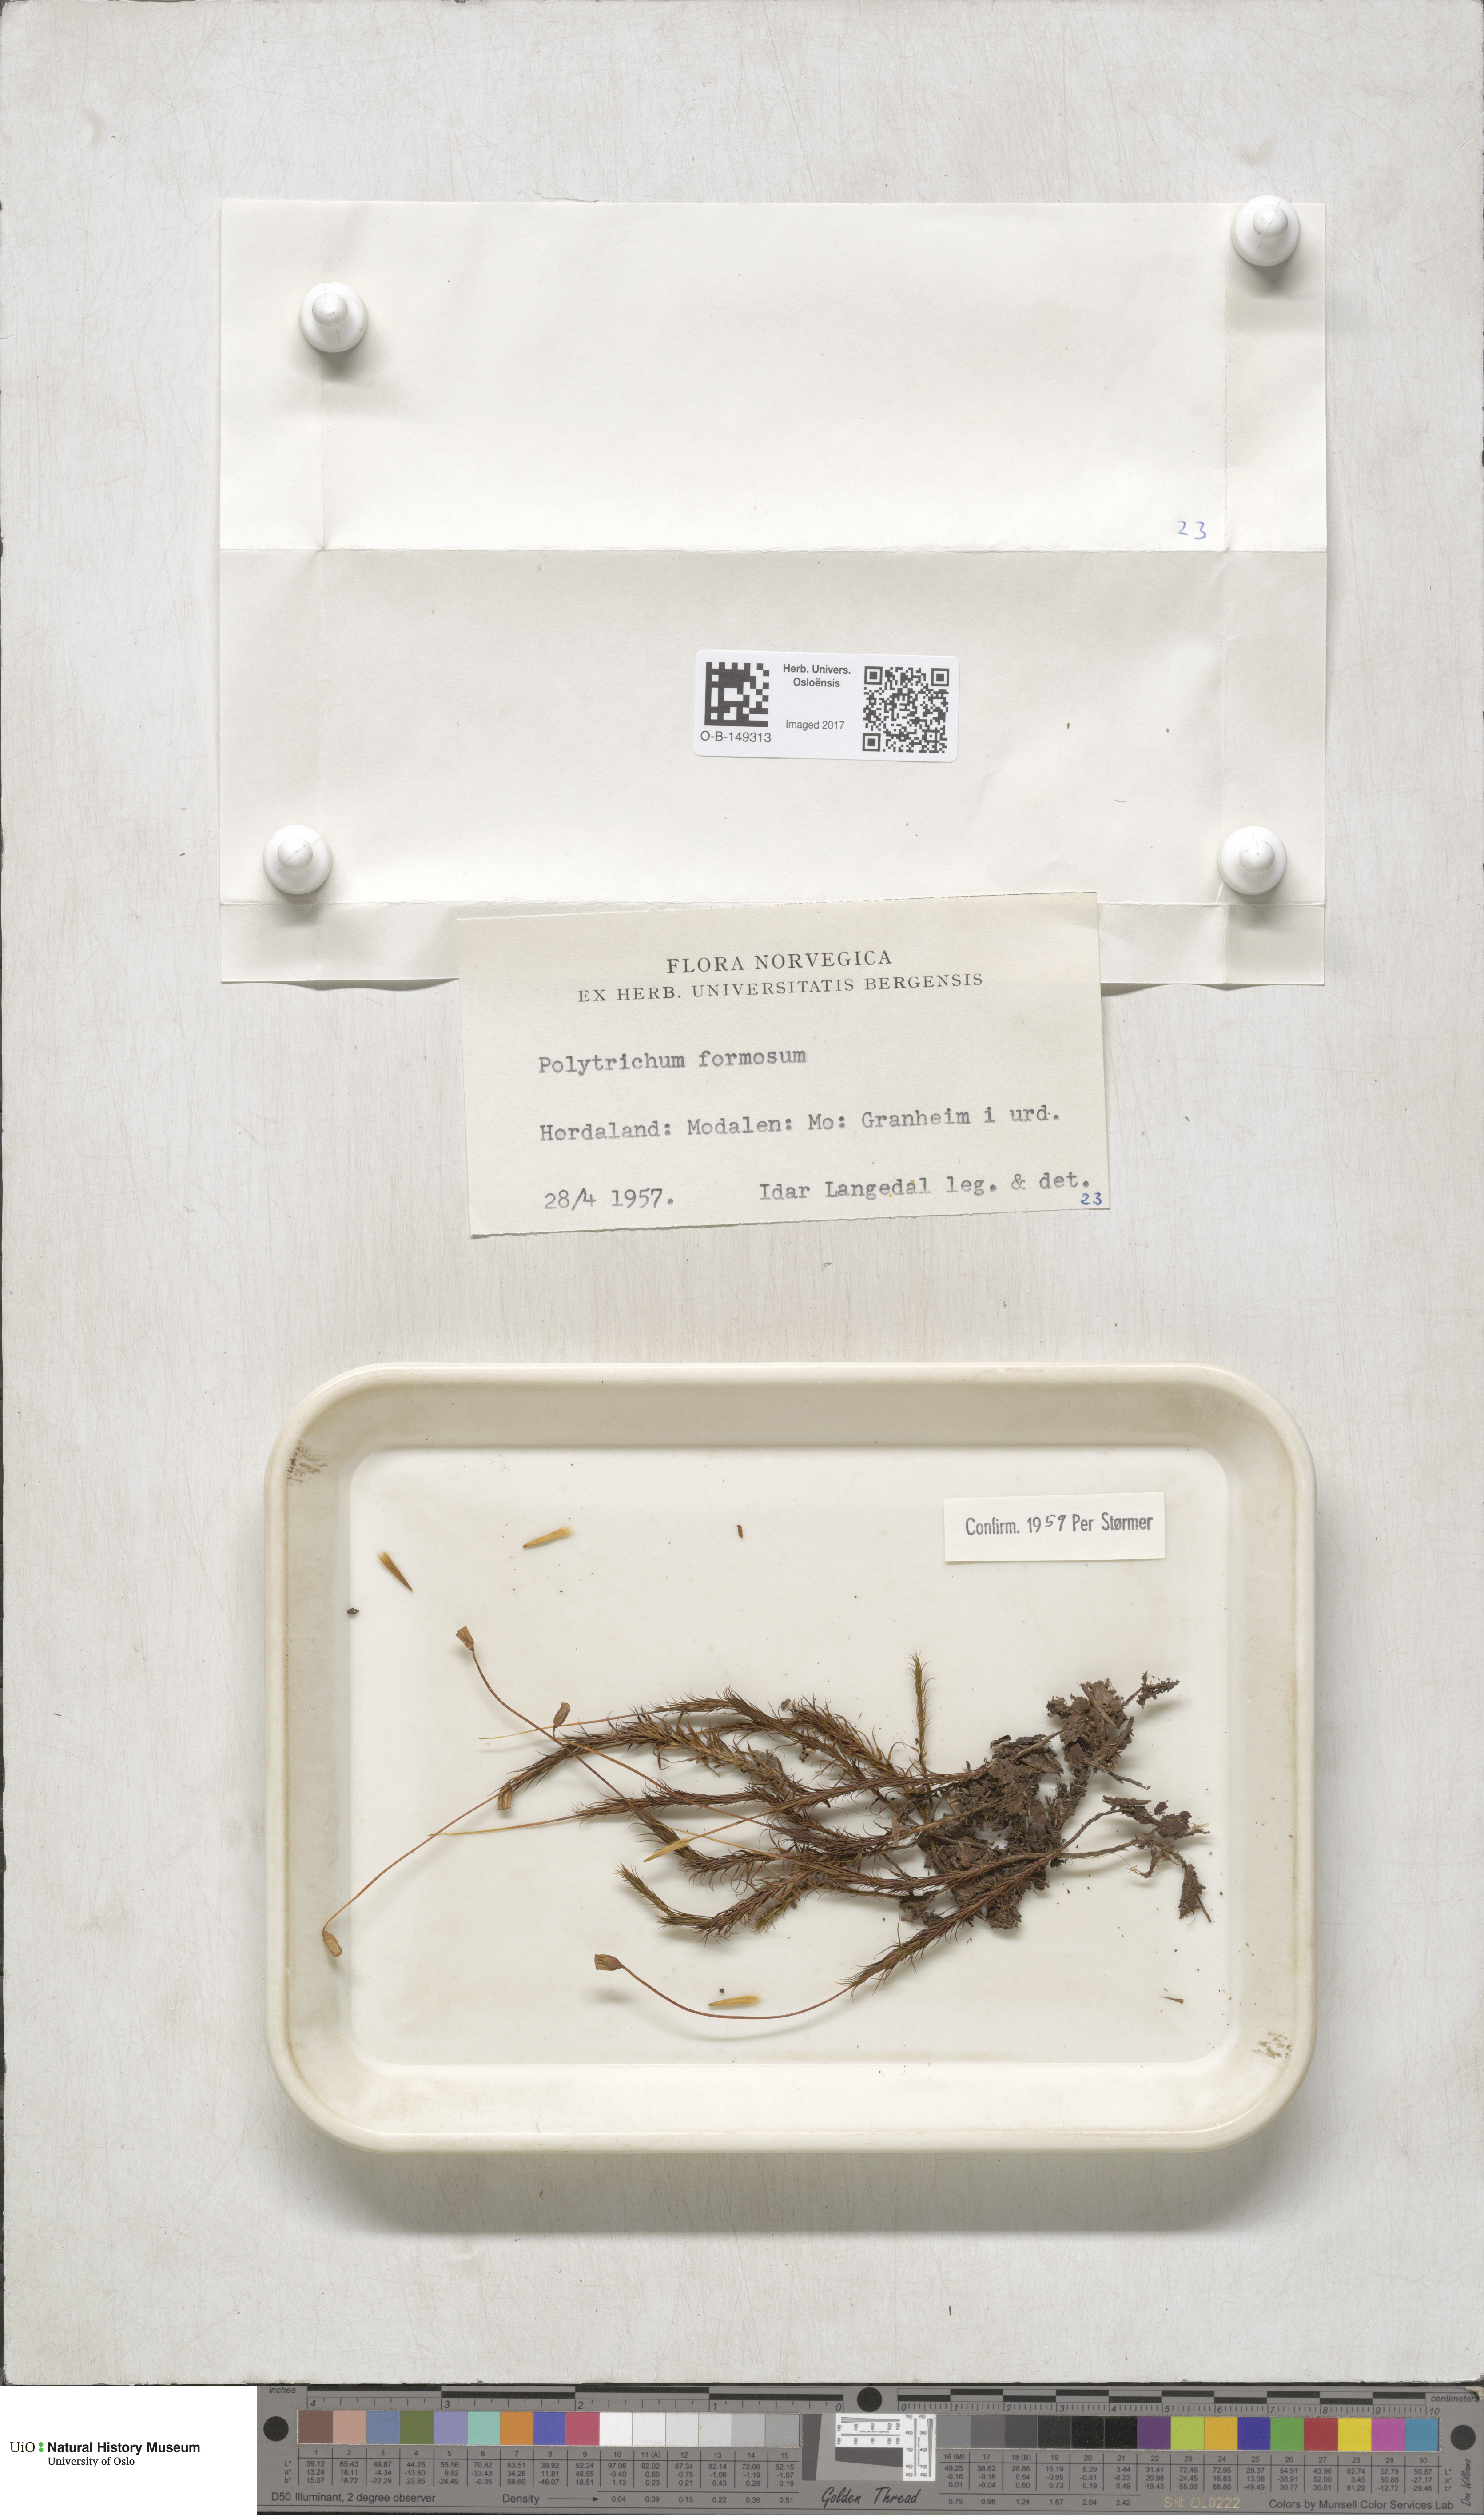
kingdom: Plantae
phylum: Bryophyta
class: Polytrichopsida
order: Polytrichales
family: Polytrichaceae
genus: Polytrichum
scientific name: Polytrichum formosum
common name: Bank haircap moss
